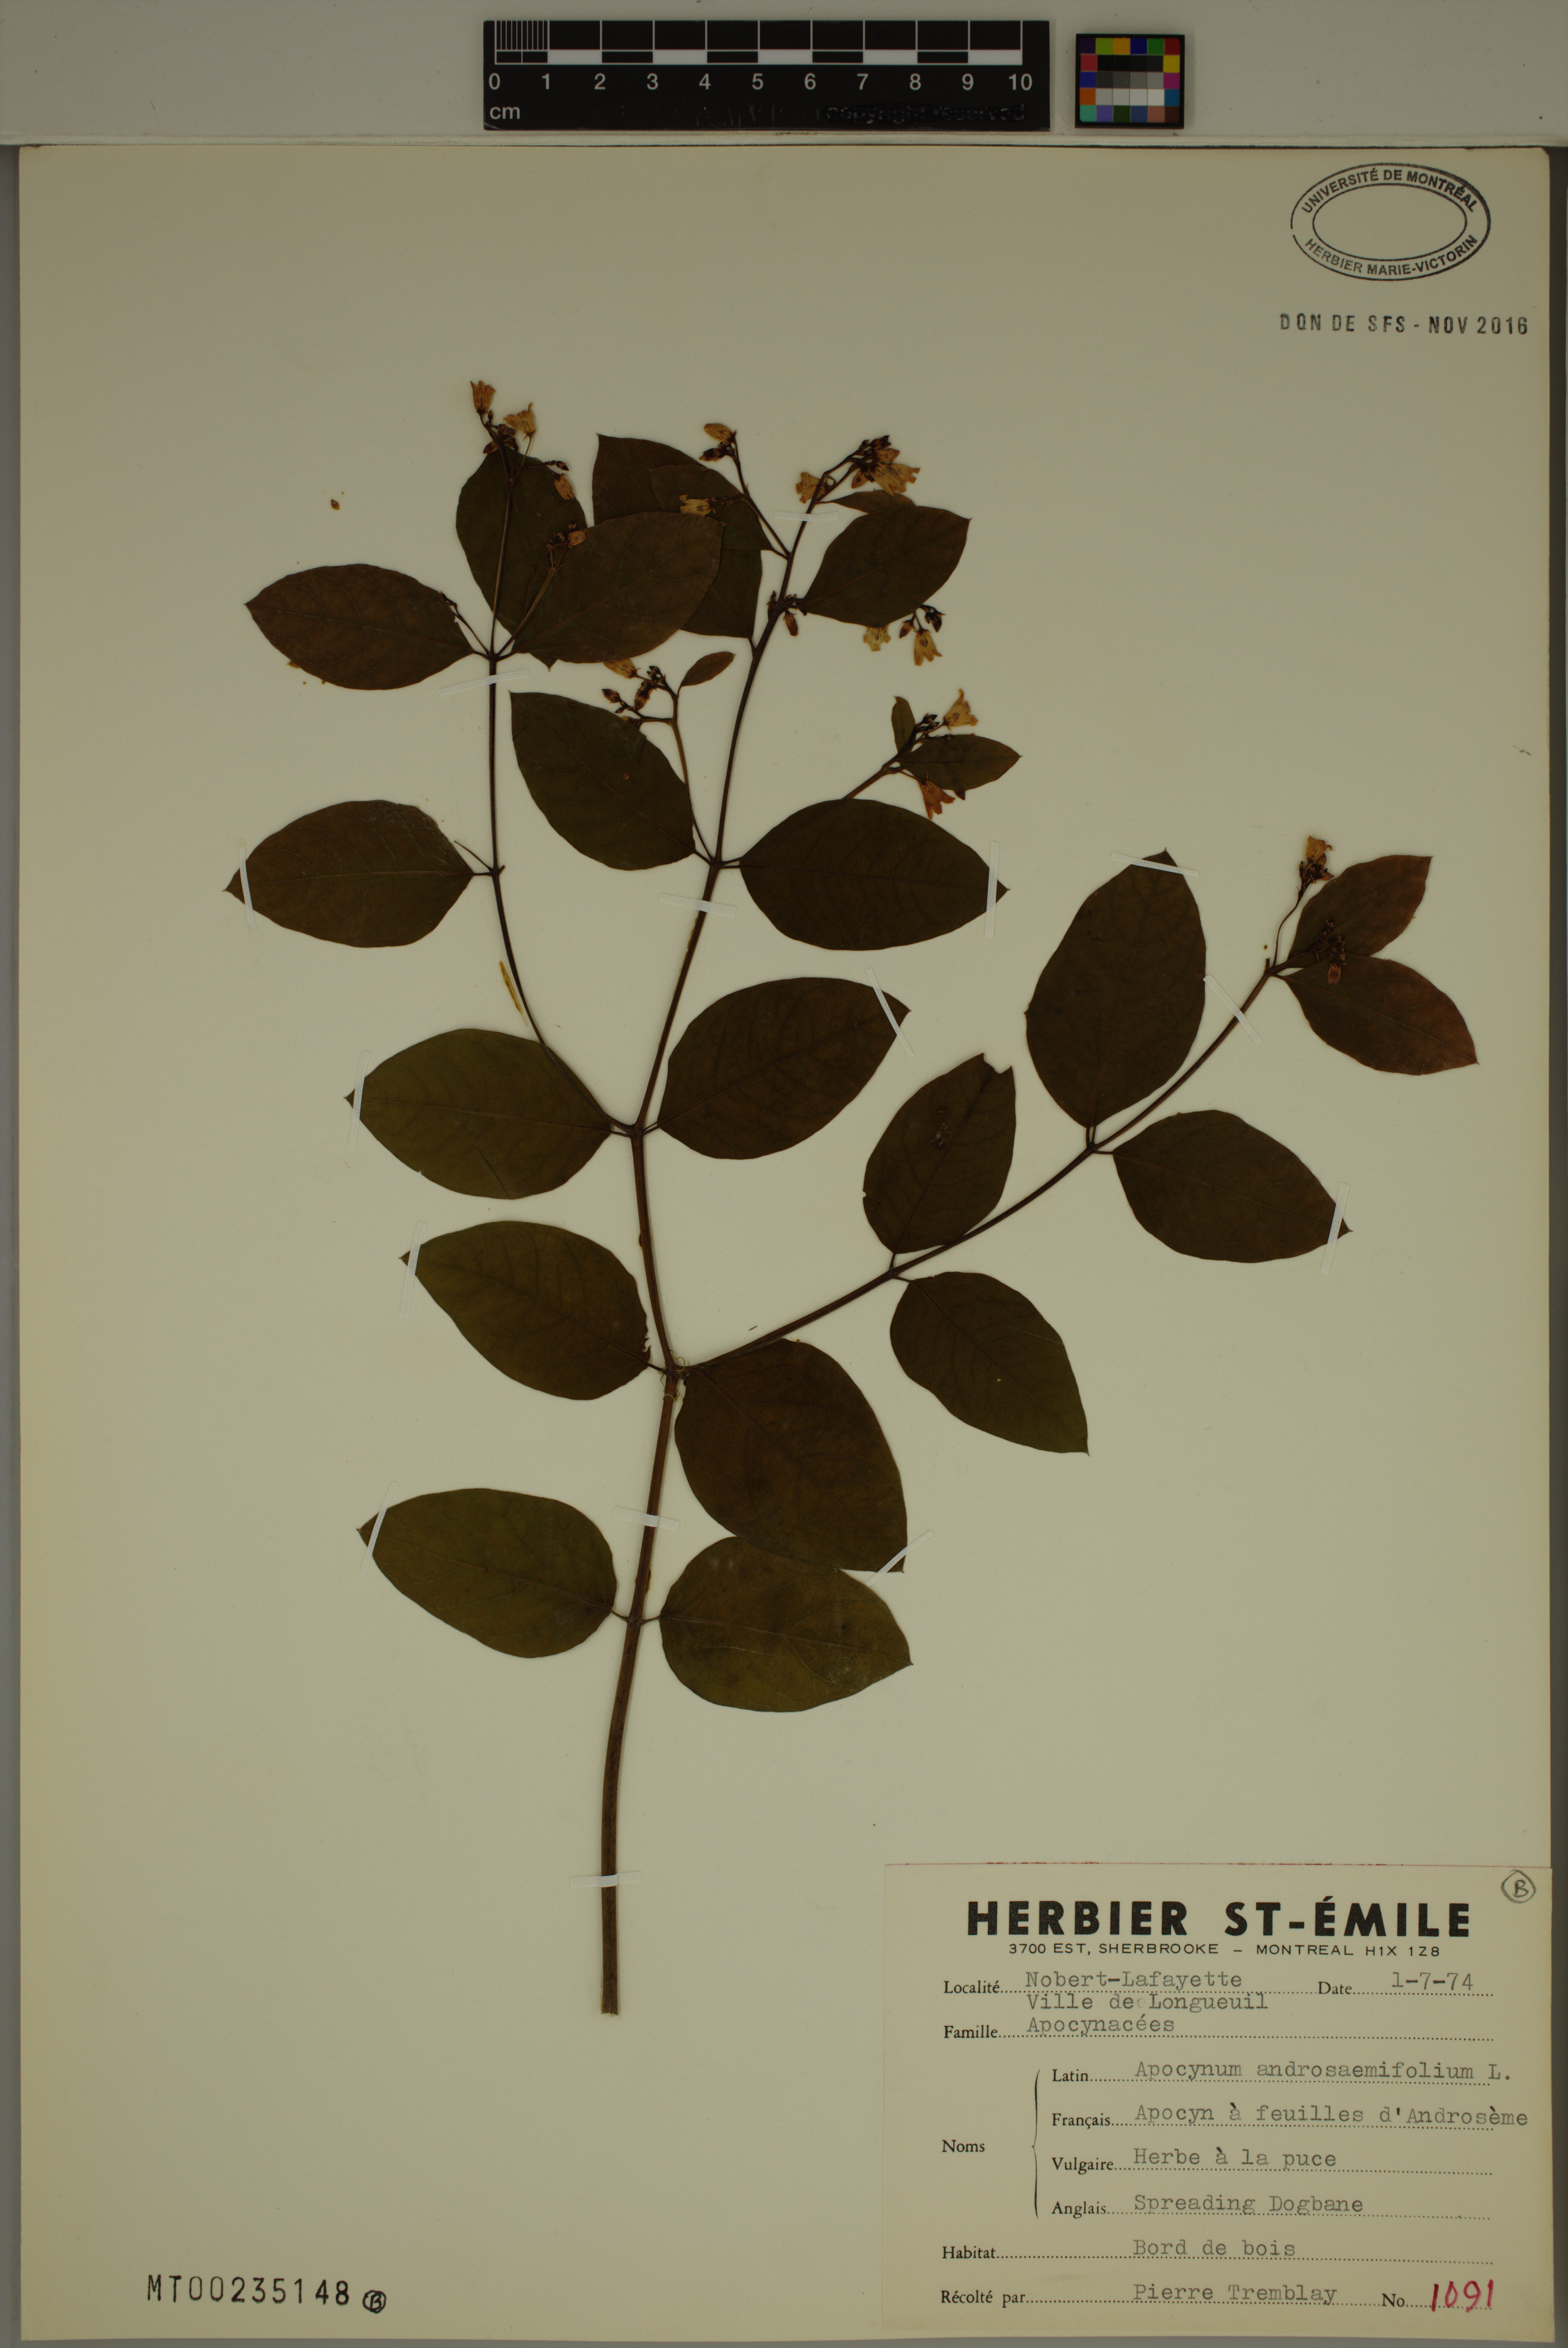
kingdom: Plantae
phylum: Tracheophyta
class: Magnoliopsida
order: Gentianales
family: Apocynaceae
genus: Apocynum
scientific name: Apocynum androsaemifolium
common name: Spreading dogbane
